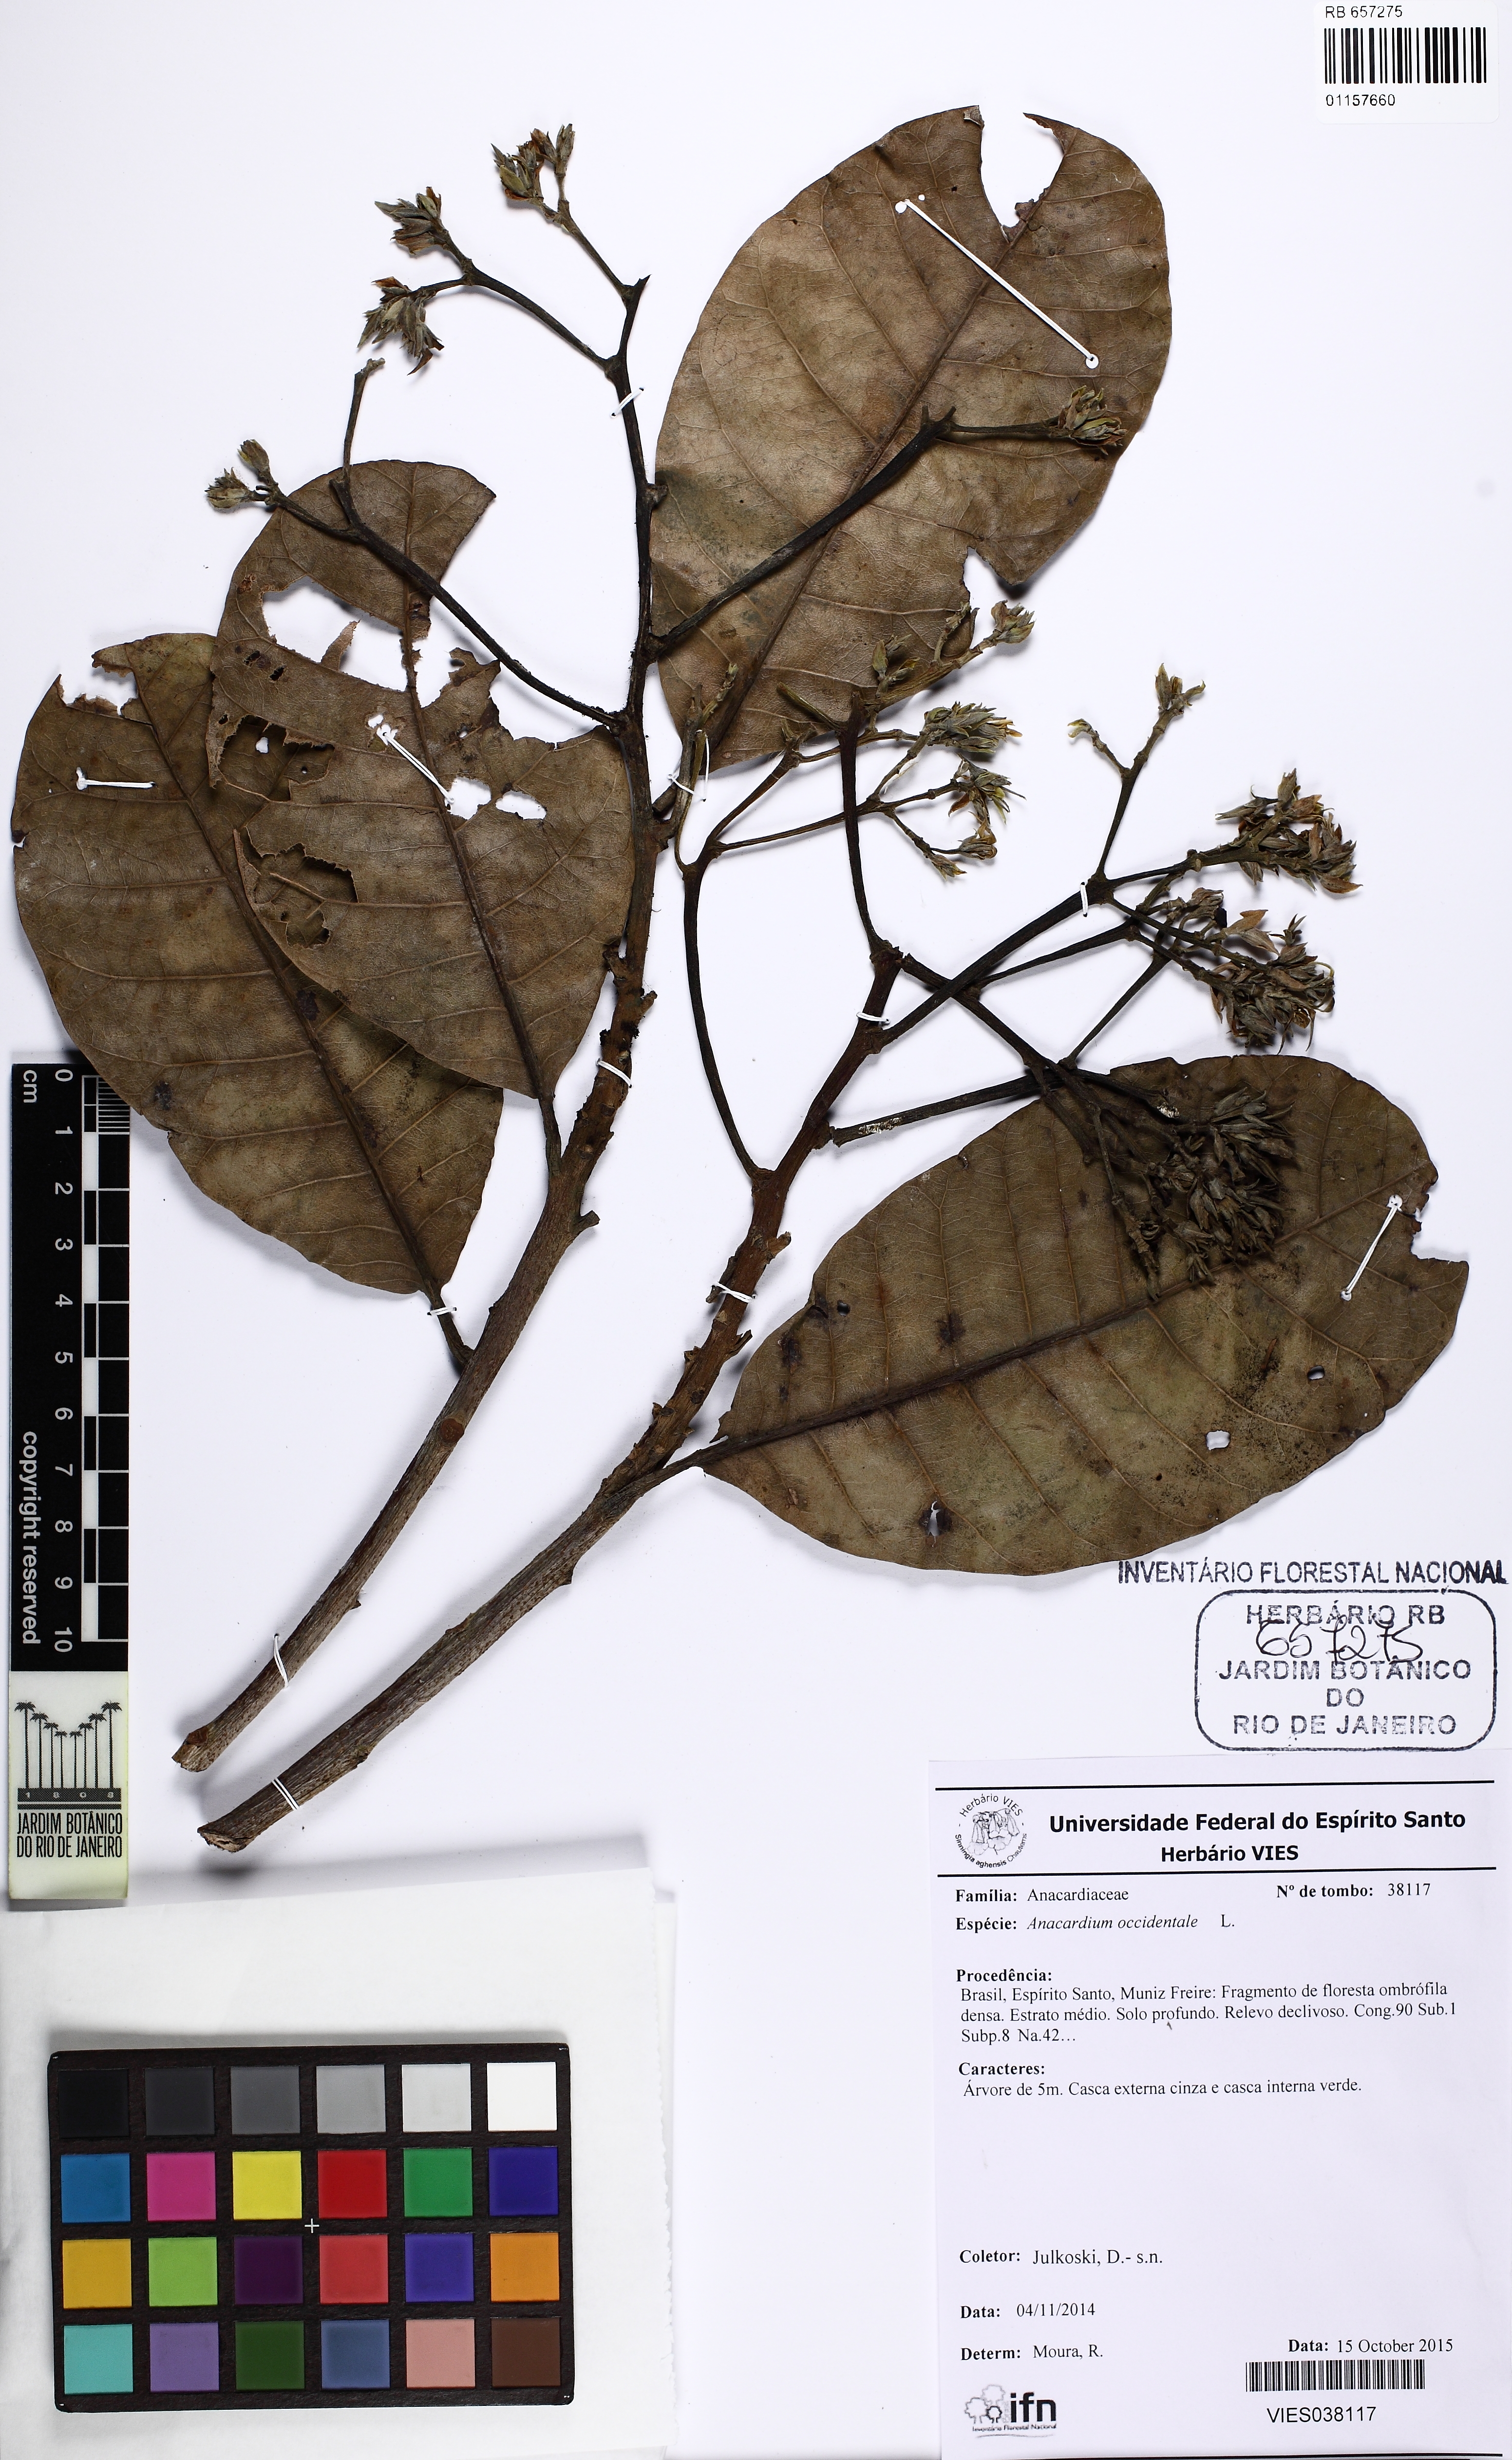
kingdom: Plantae
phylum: Tracheophyta
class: Magnoliopsida
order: Sapindales
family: Anacardiaceae
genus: Anacardium
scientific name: Anacardium occidentale
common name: Cashew
